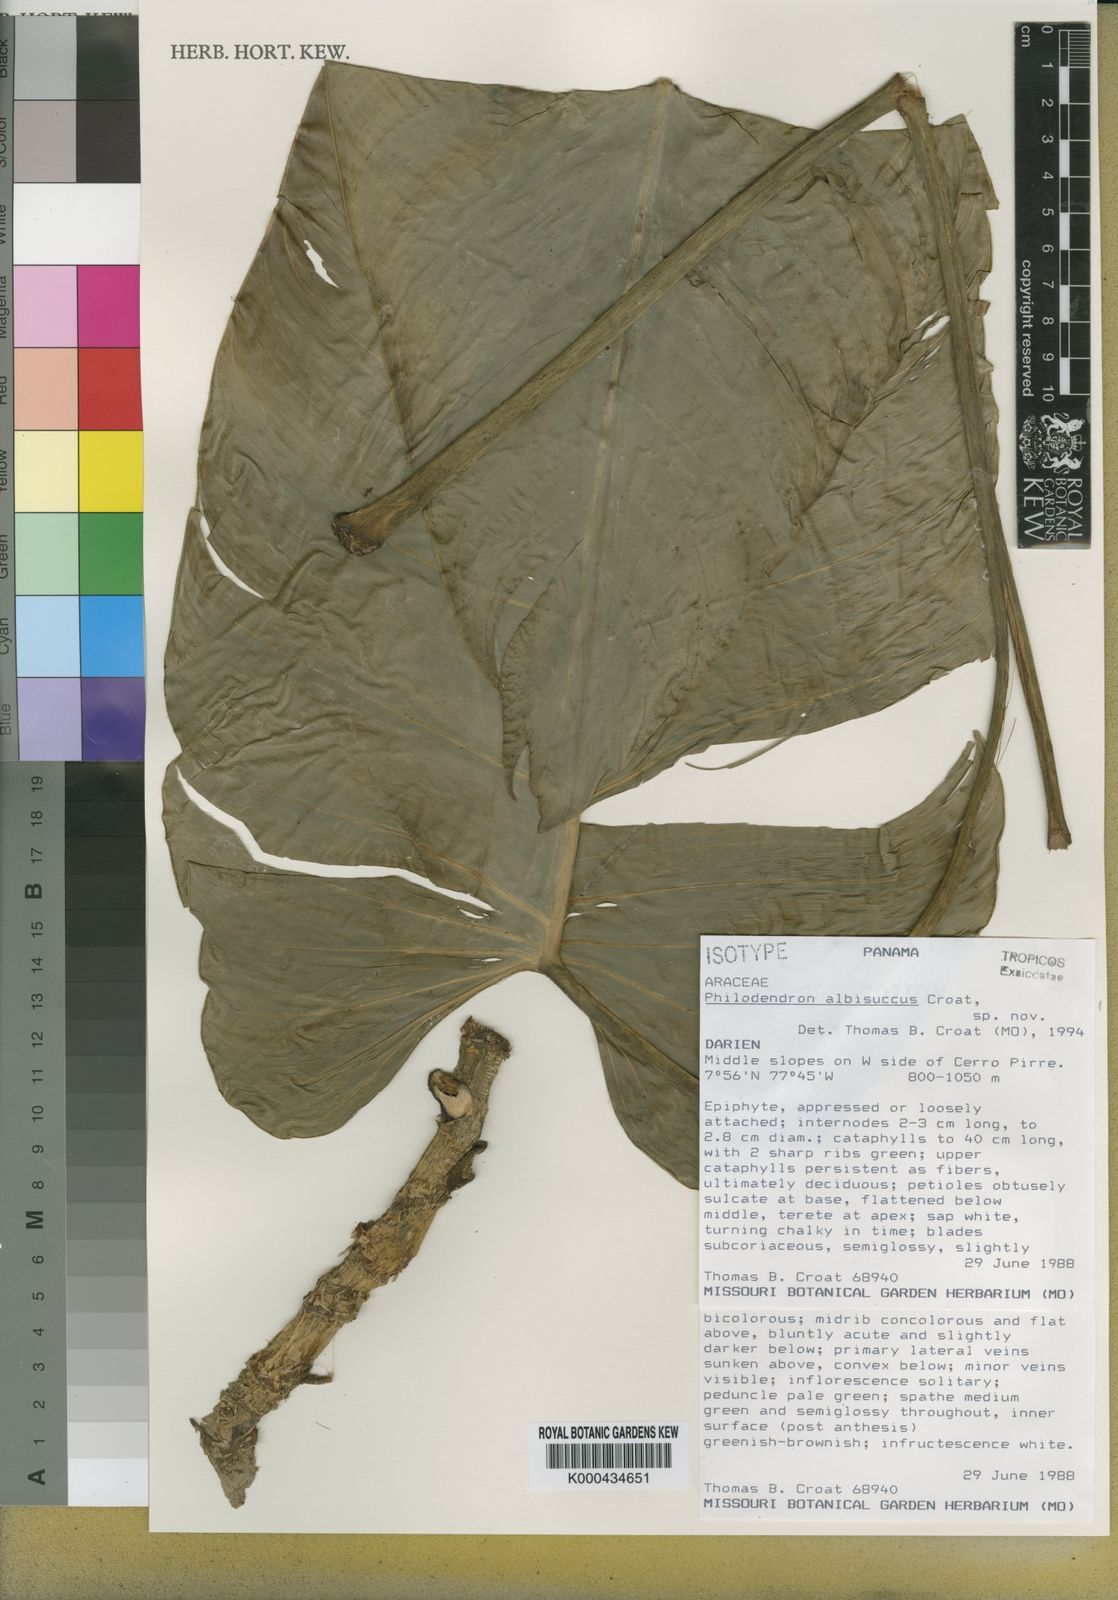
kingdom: Plantae
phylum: Tracheophyta
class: Liliopsida
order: Alismatales
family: Araceae
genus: Philodendron
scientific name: Philodendron albisuccus
